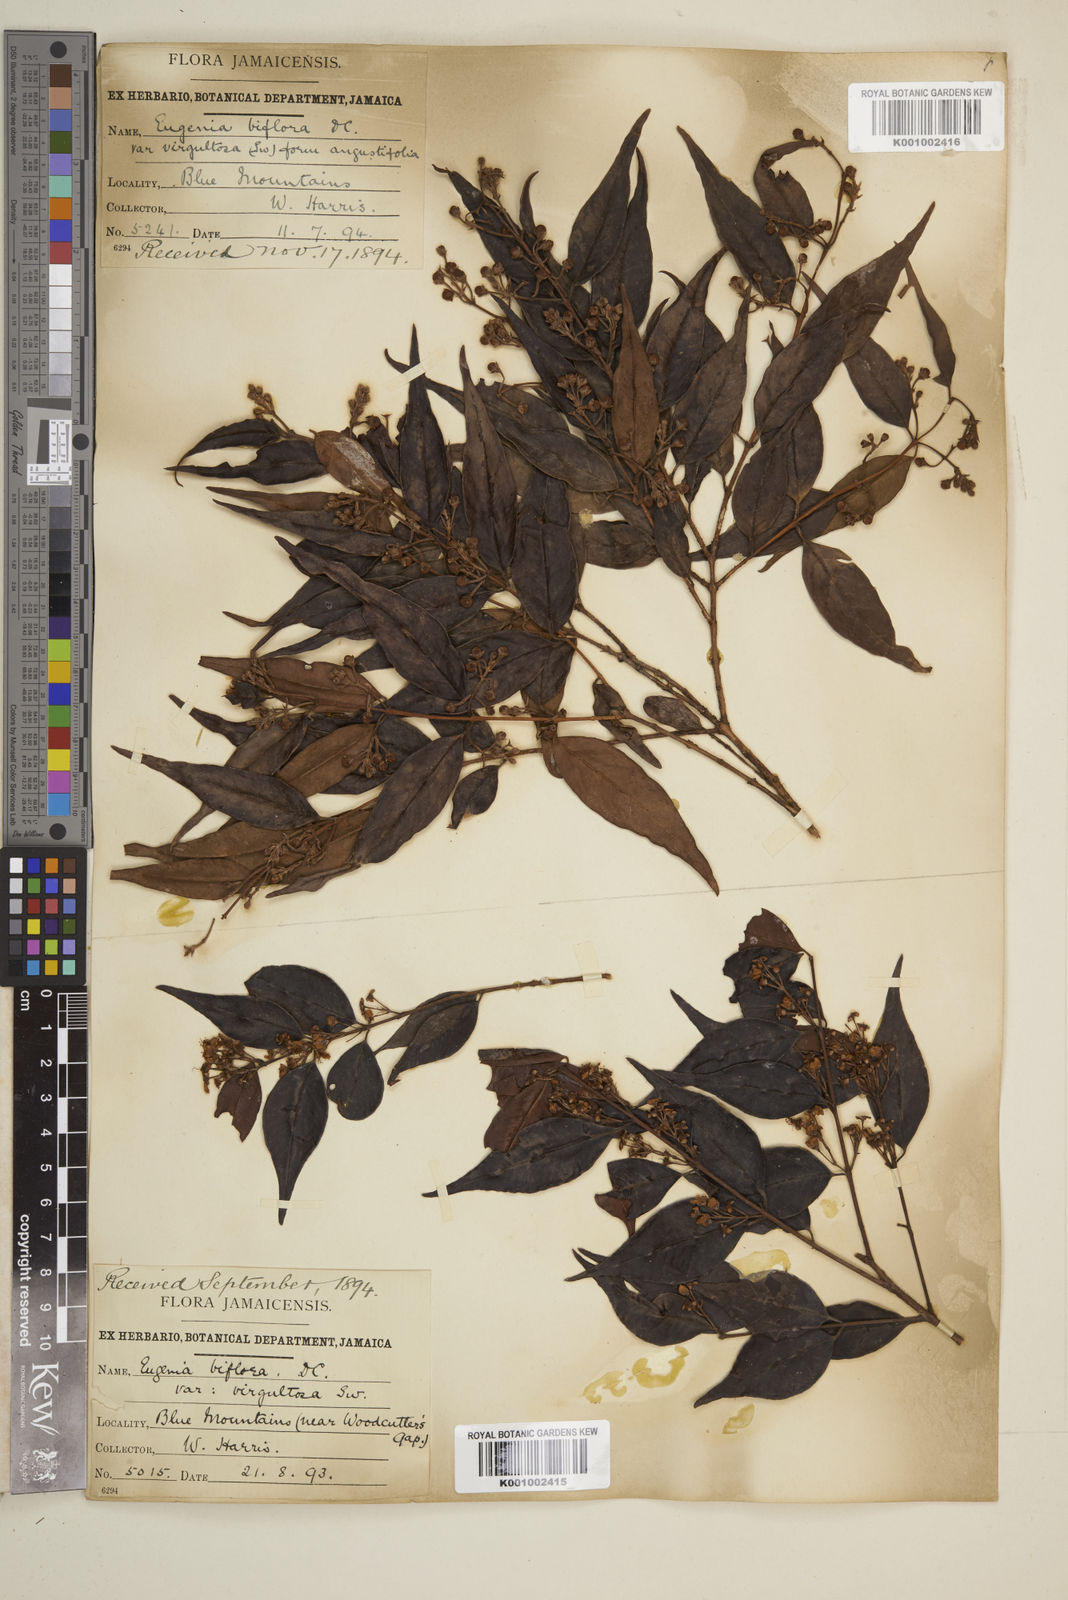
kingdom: Plantae
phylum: Tracheophyta
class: Magnoliopsida
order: Myrtales
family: Myrtaceae
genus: Eugenia
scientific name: Eugenia biflora
